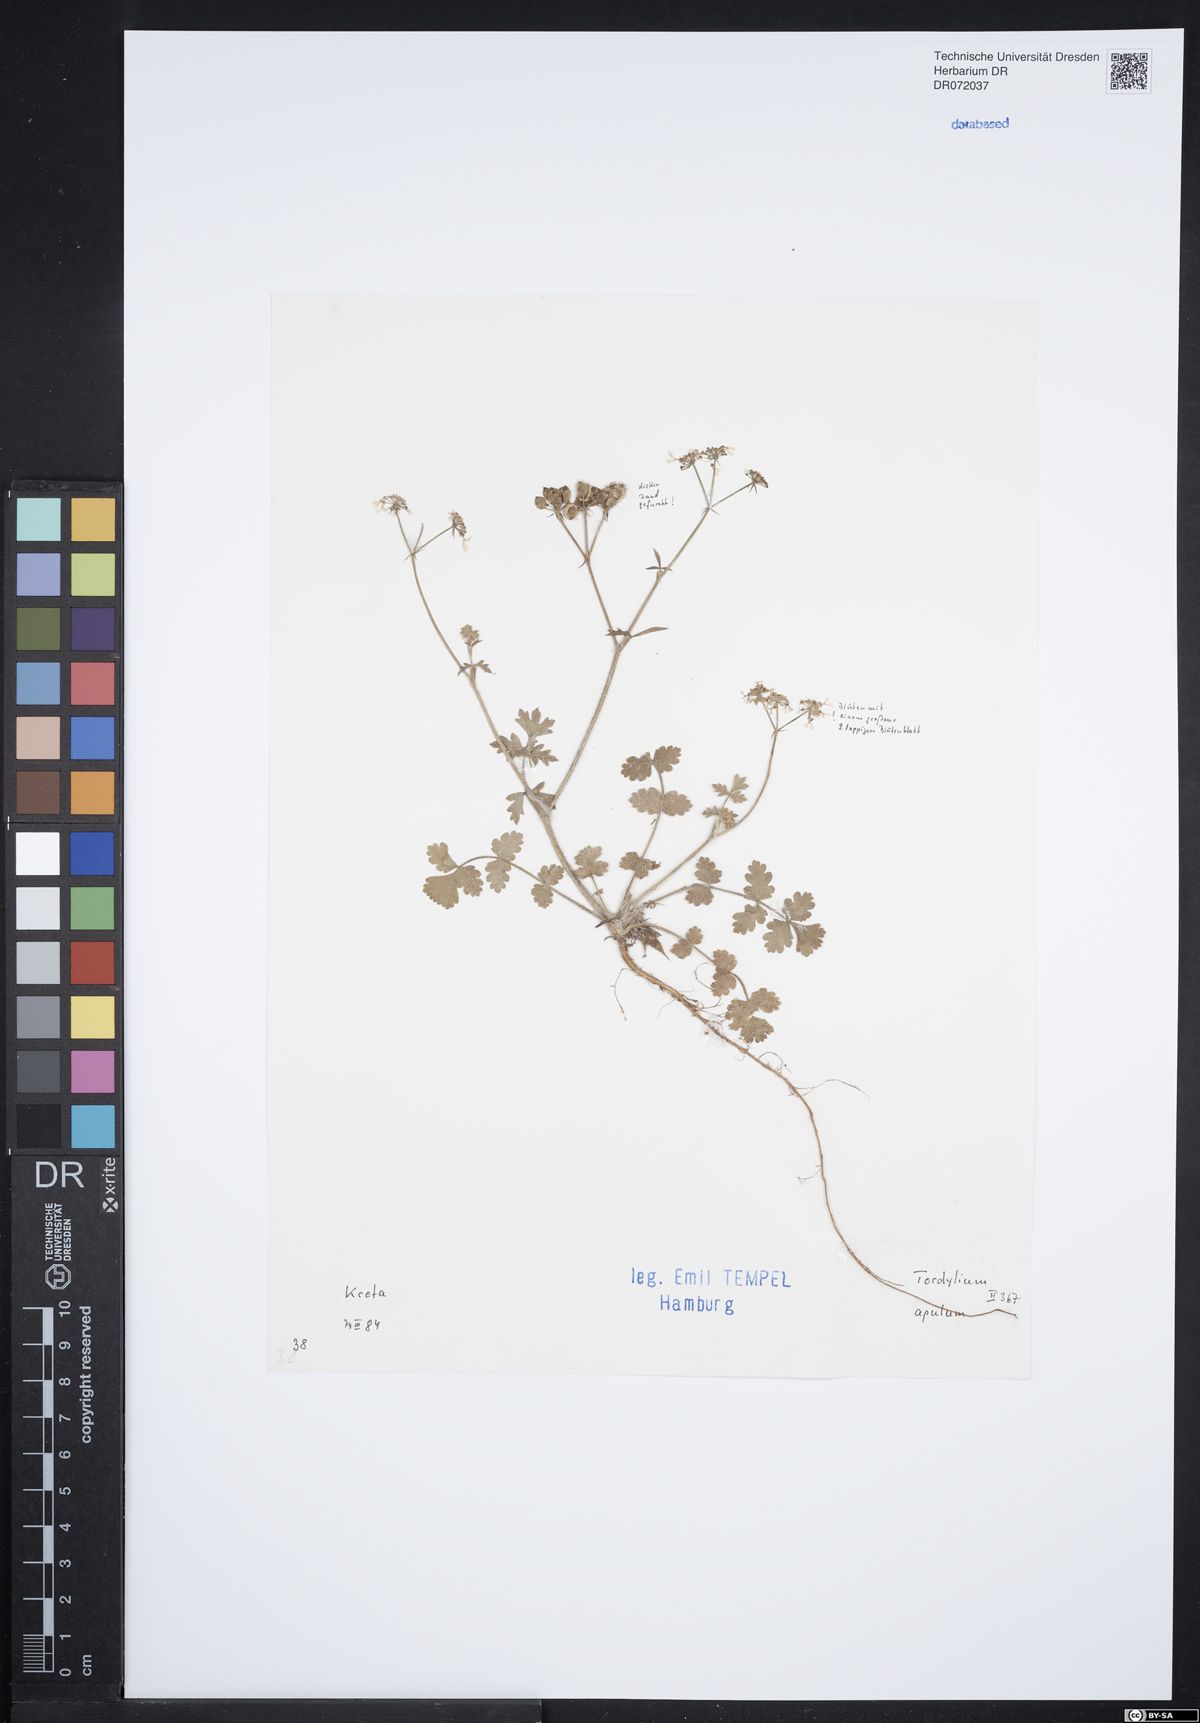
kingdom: Plantae
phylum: Tracheophyta
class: Magnoliopsida
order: Apiales
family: Apiaceae
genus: Tordylium
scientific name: Tordylium apulum
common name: Mediterranean hartwort
